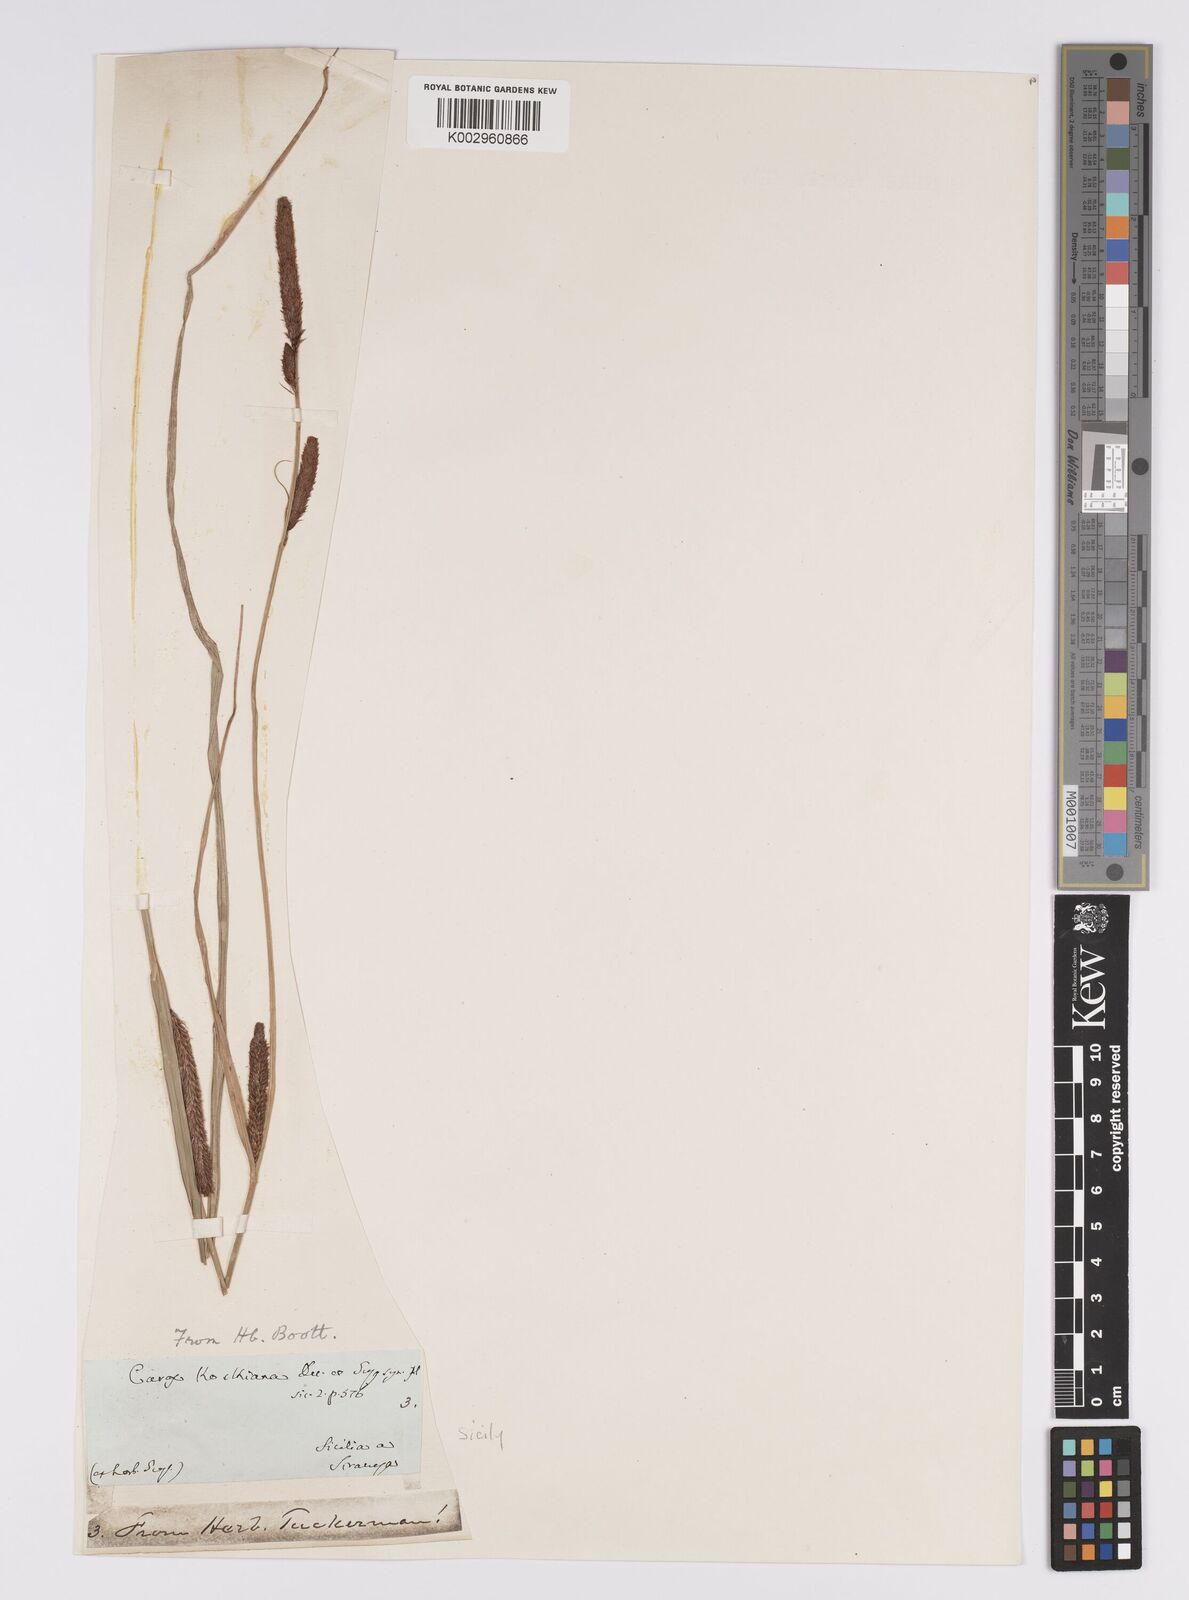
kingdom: Plantae
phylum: Tracheophyta
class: Liliopsida
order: Poales
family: Cyperaceae
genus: Carex
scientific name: Carex acutiformis
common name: Lesser pond-sedge
